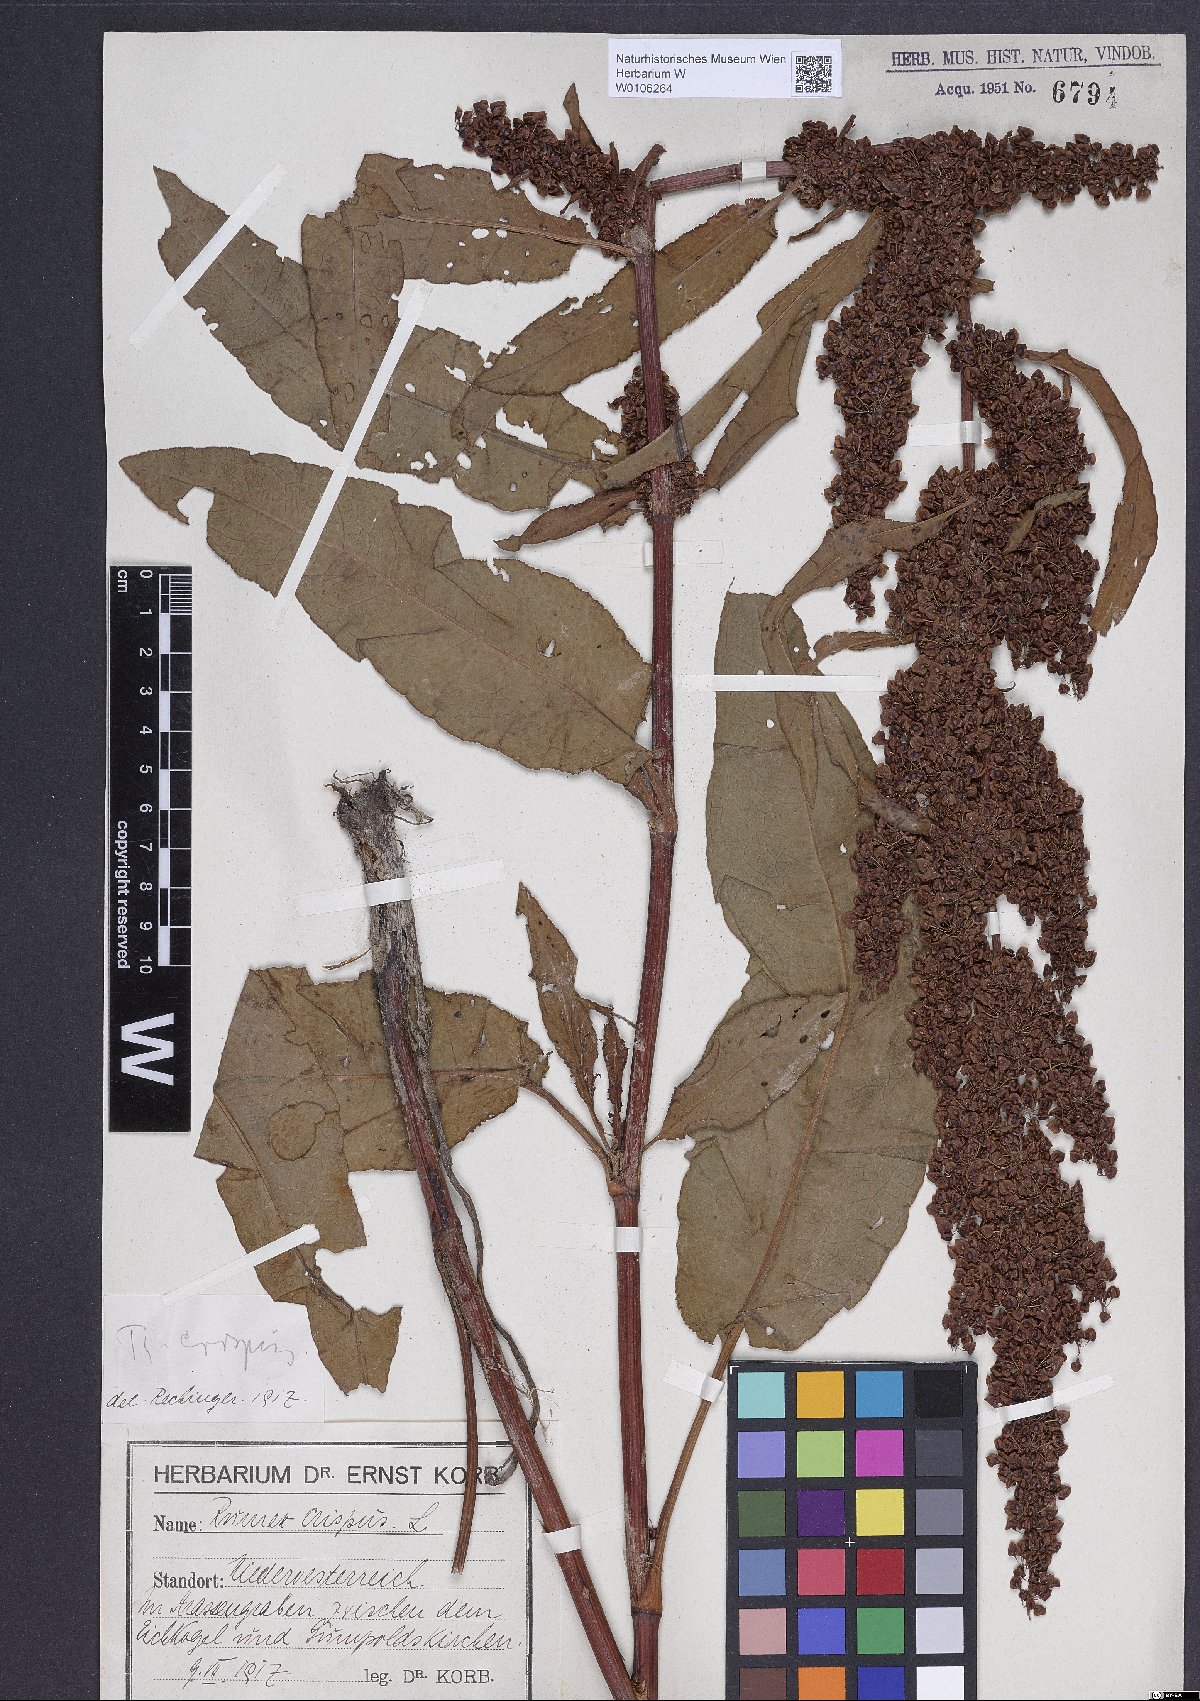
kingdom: Plantae
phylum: Tracheophyta
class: Magnoliopsida
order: Caryophyllales
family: Polygonaceae
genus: Rumex
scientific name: Rumex crispus
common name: Curled dock
